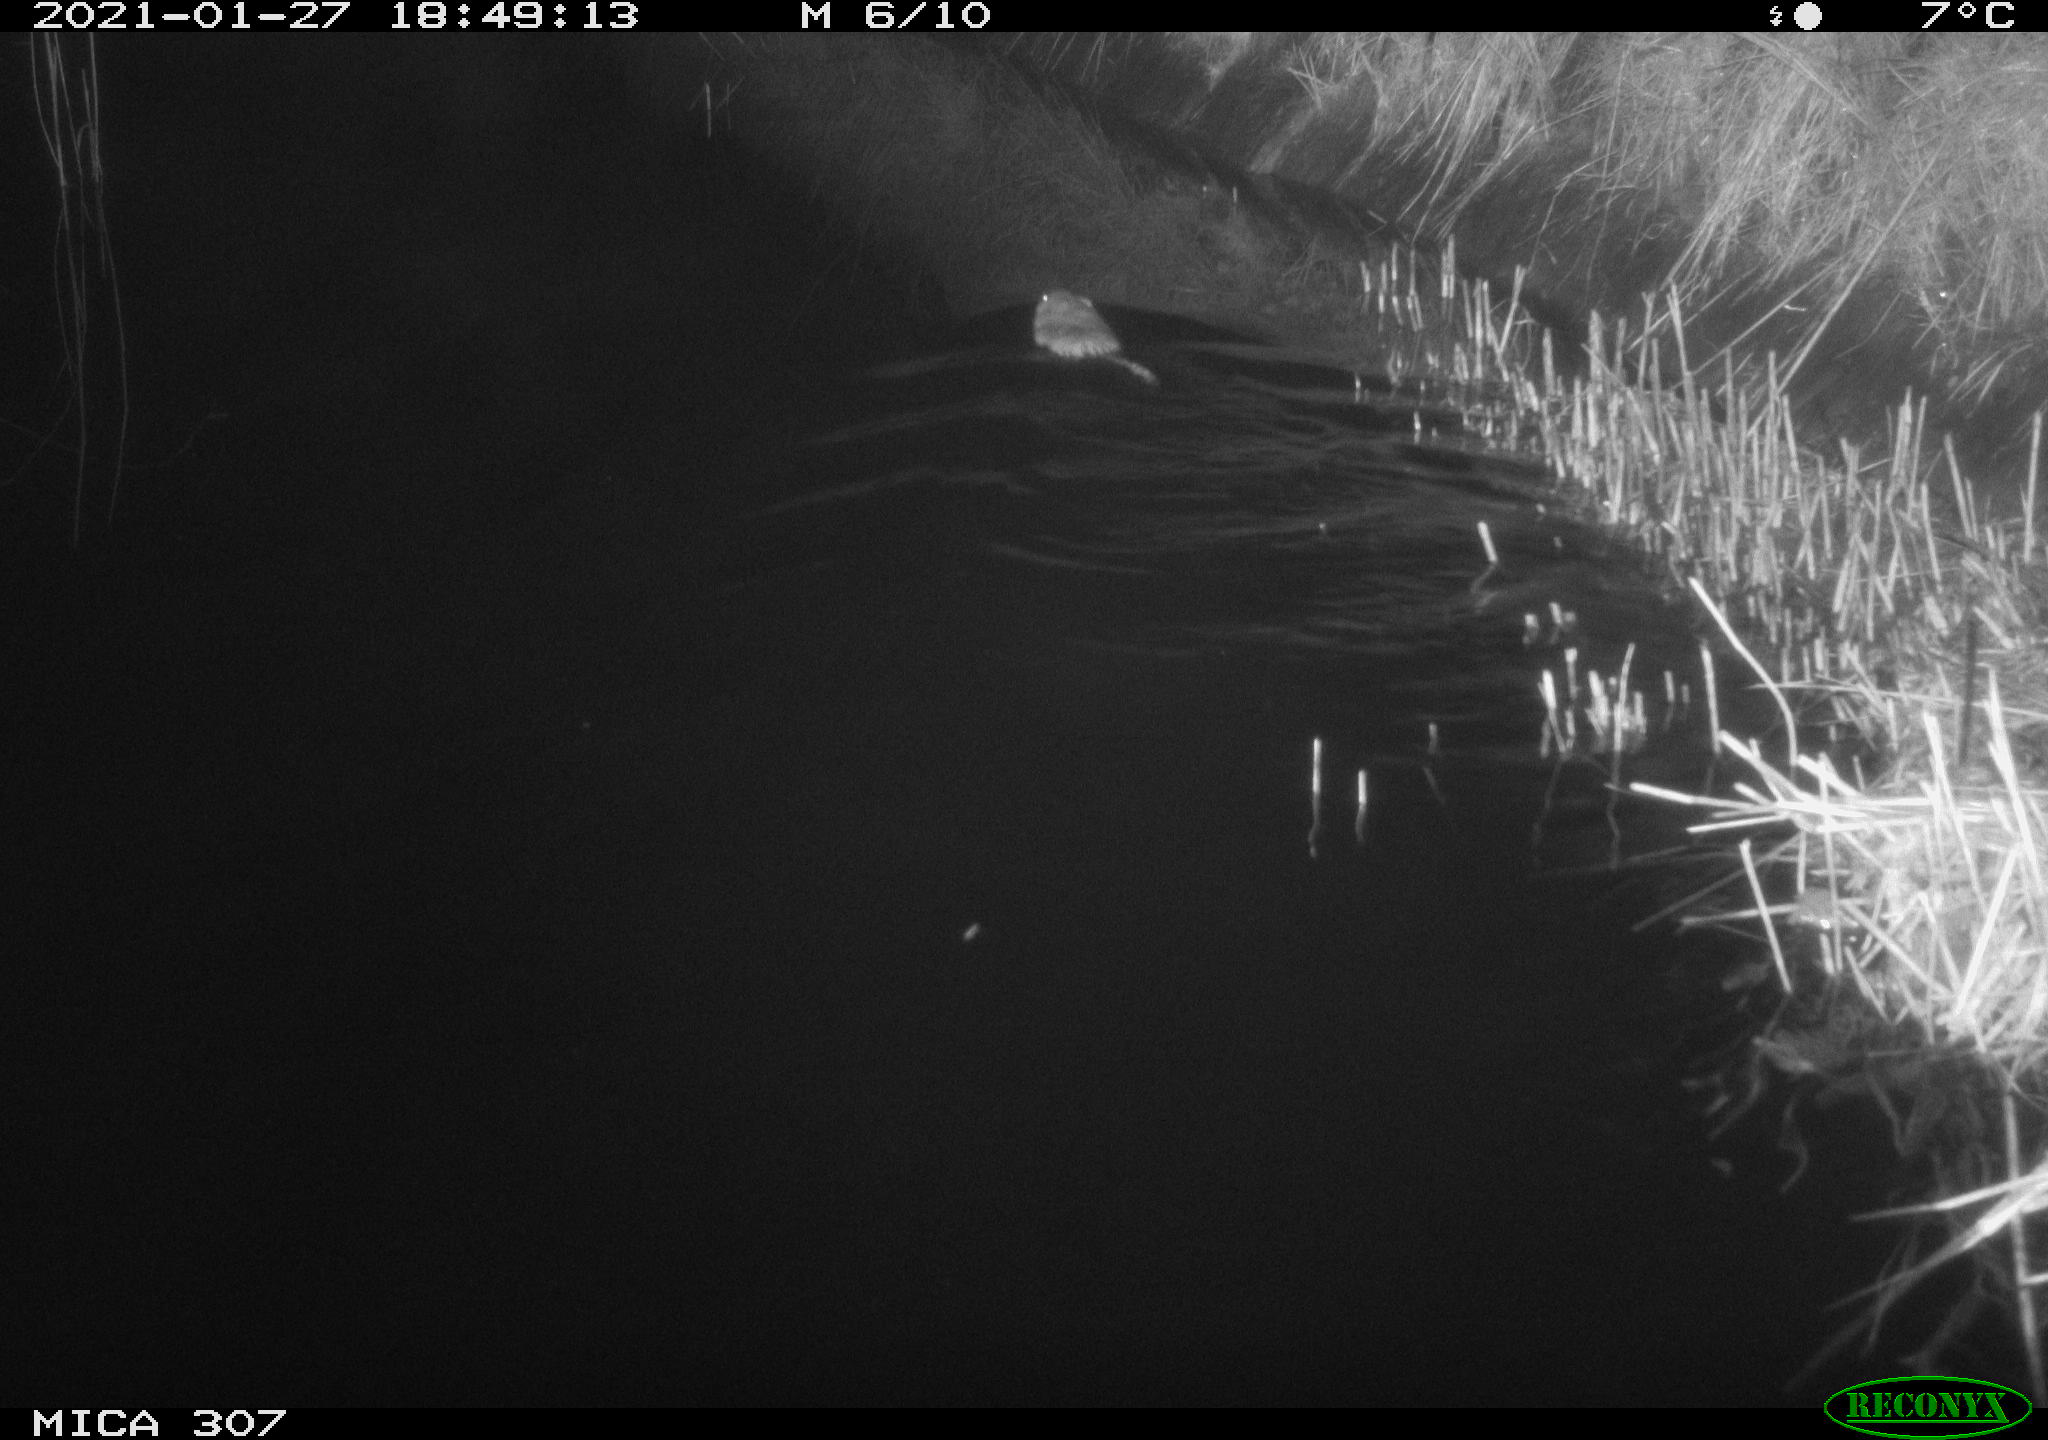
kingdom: Animalia
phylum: Chordata
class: Mammalia
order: Rodentia
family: Cricetidae
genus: Ondatra
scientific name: Ondatra zibethicus
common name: Muskrat
